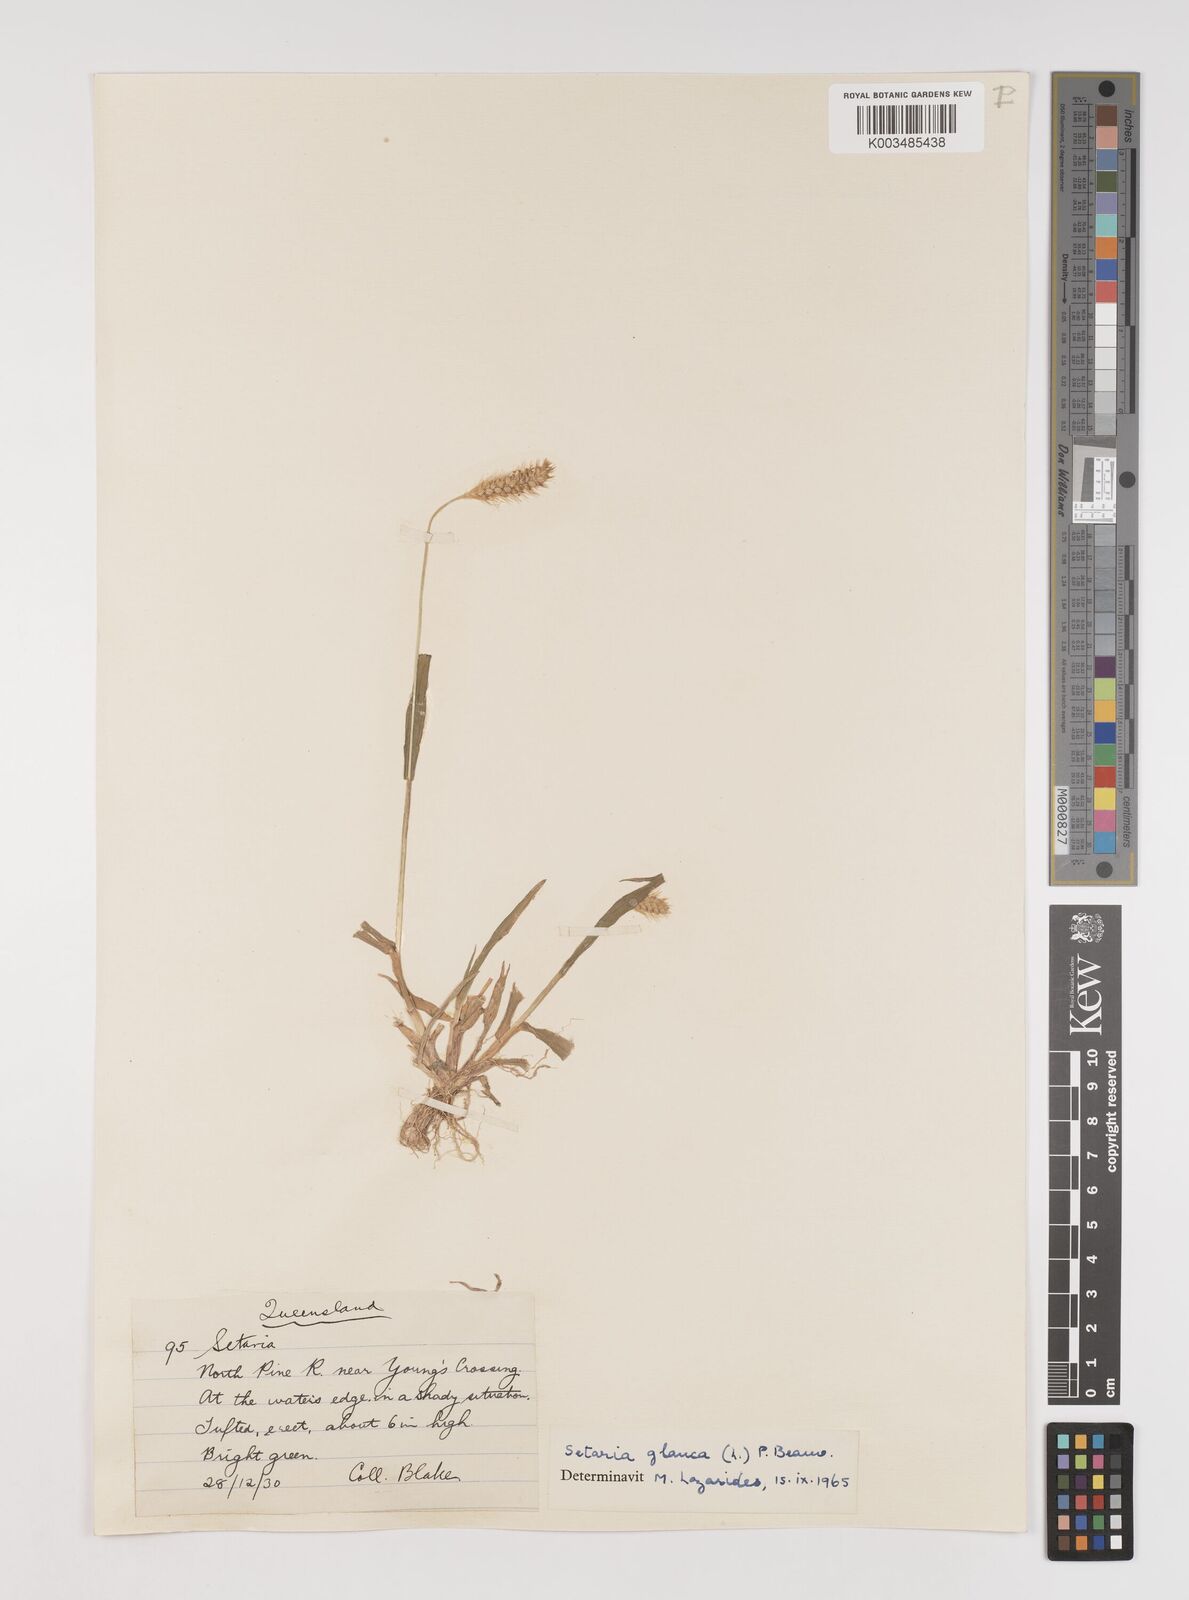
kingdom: Plantae
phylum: Tracheophyta
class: Liliopsida
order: Poales
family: Poaceae
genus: Setaria
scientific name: Setaria pumila
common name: Yellow bristle-grass
